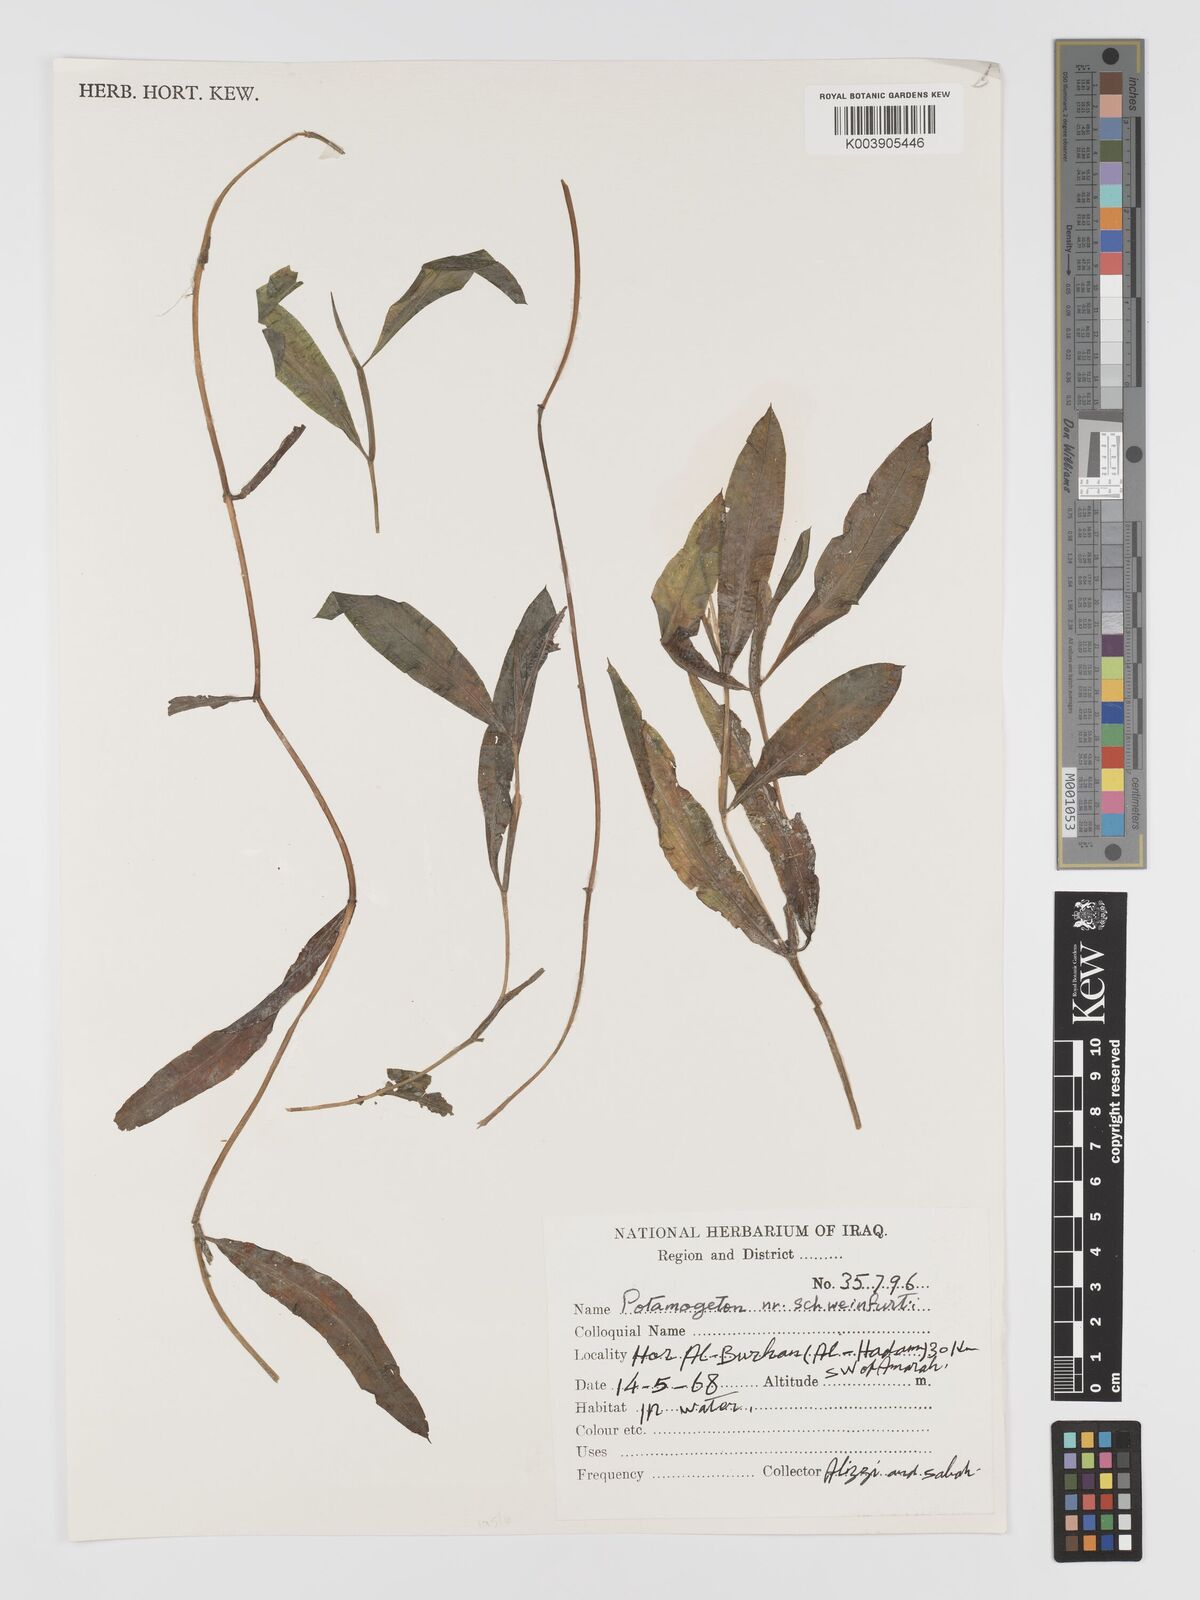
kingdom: Plantae
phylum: Tracheophyta
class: Liliopsida
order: Alismatales
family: Potamogetonaceae
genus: Potamogeton
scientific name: Potamogeton schweinfurthii
